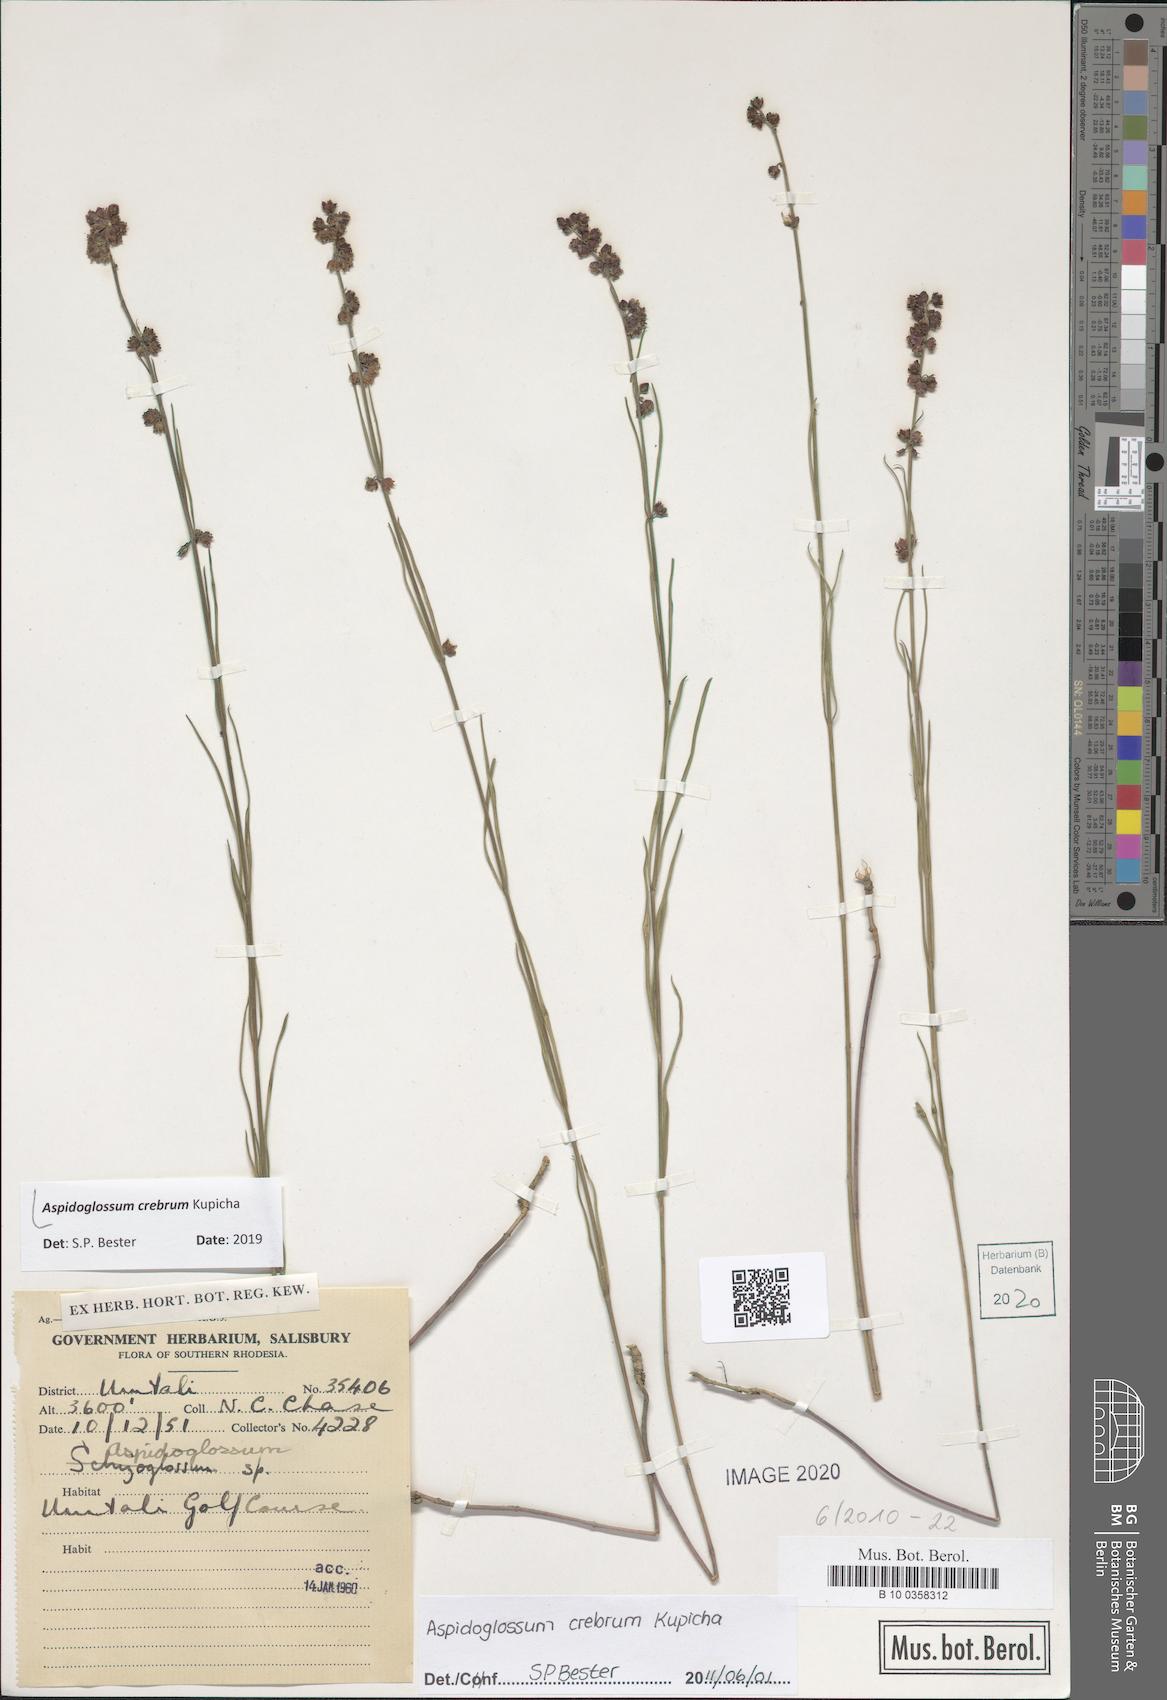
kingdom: Plantae
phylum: Tracheophyta
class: Magnoliopsida
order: Gentianales
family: Apocynaceae
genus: Aspidoglossum
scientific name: Aspidoglossum
